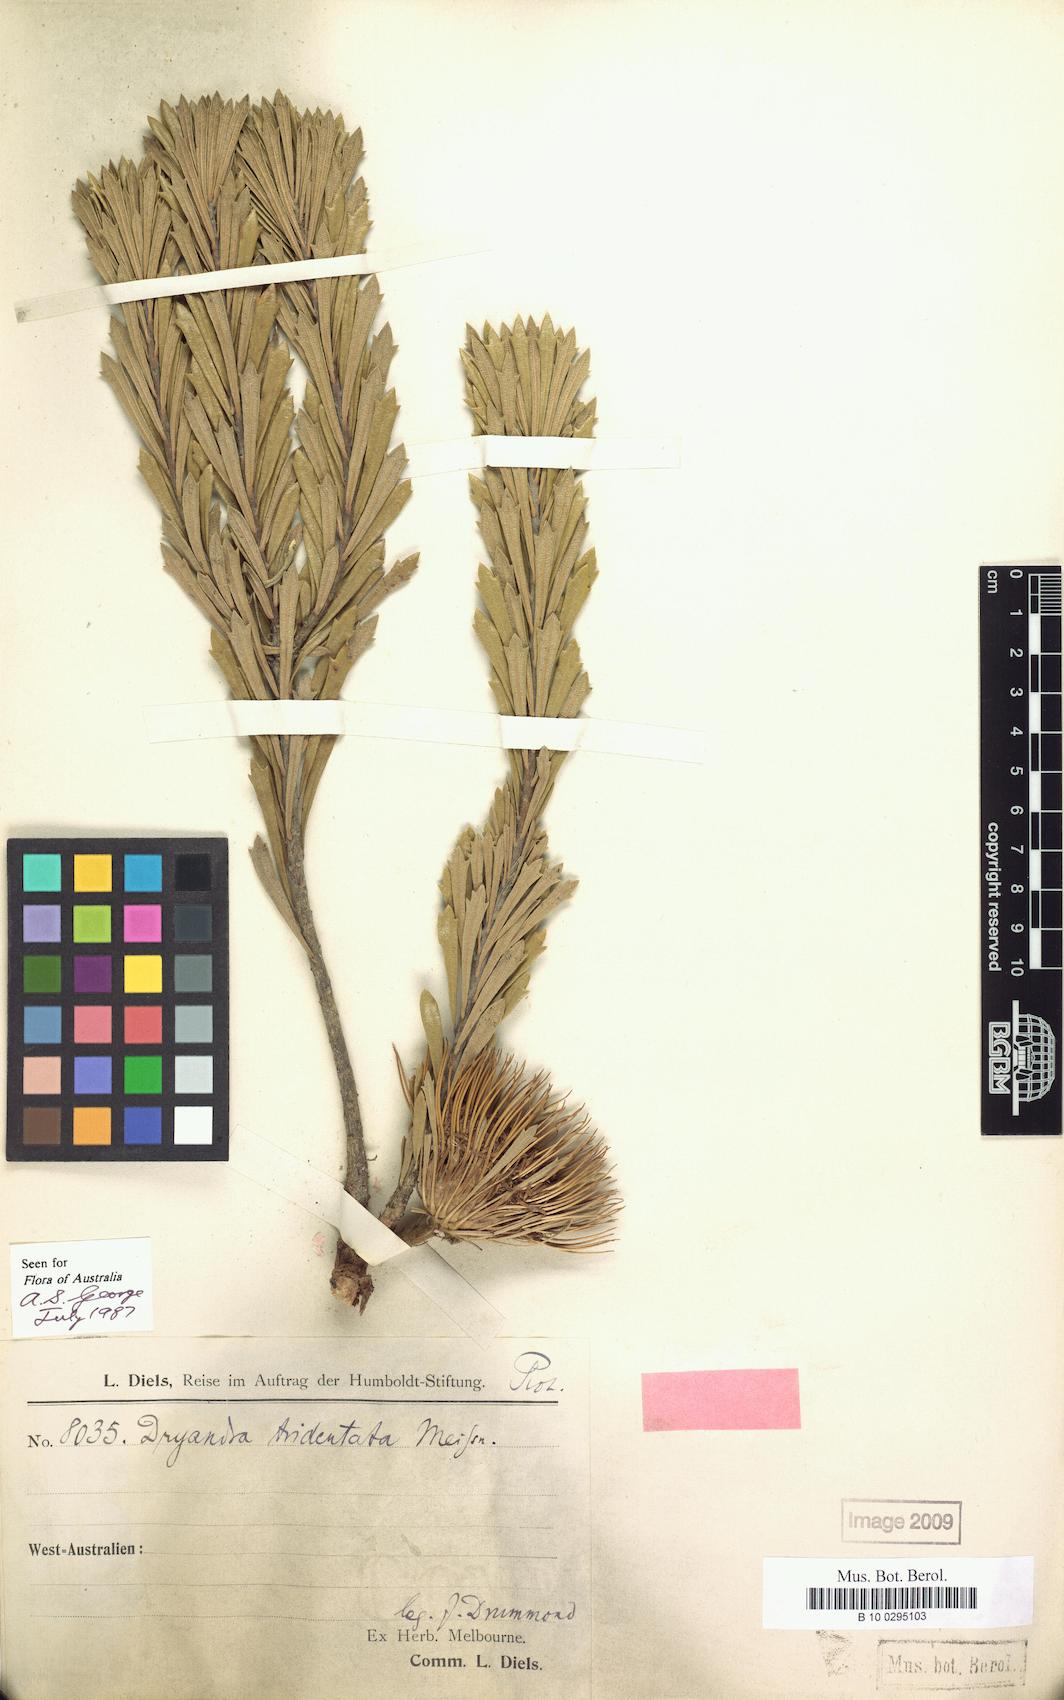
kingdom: Plantae
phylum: Tracheophyta
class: Magnoliopsida
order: Proteales
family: Proteaceae
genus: Banksia
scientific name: Banksia tridentata
